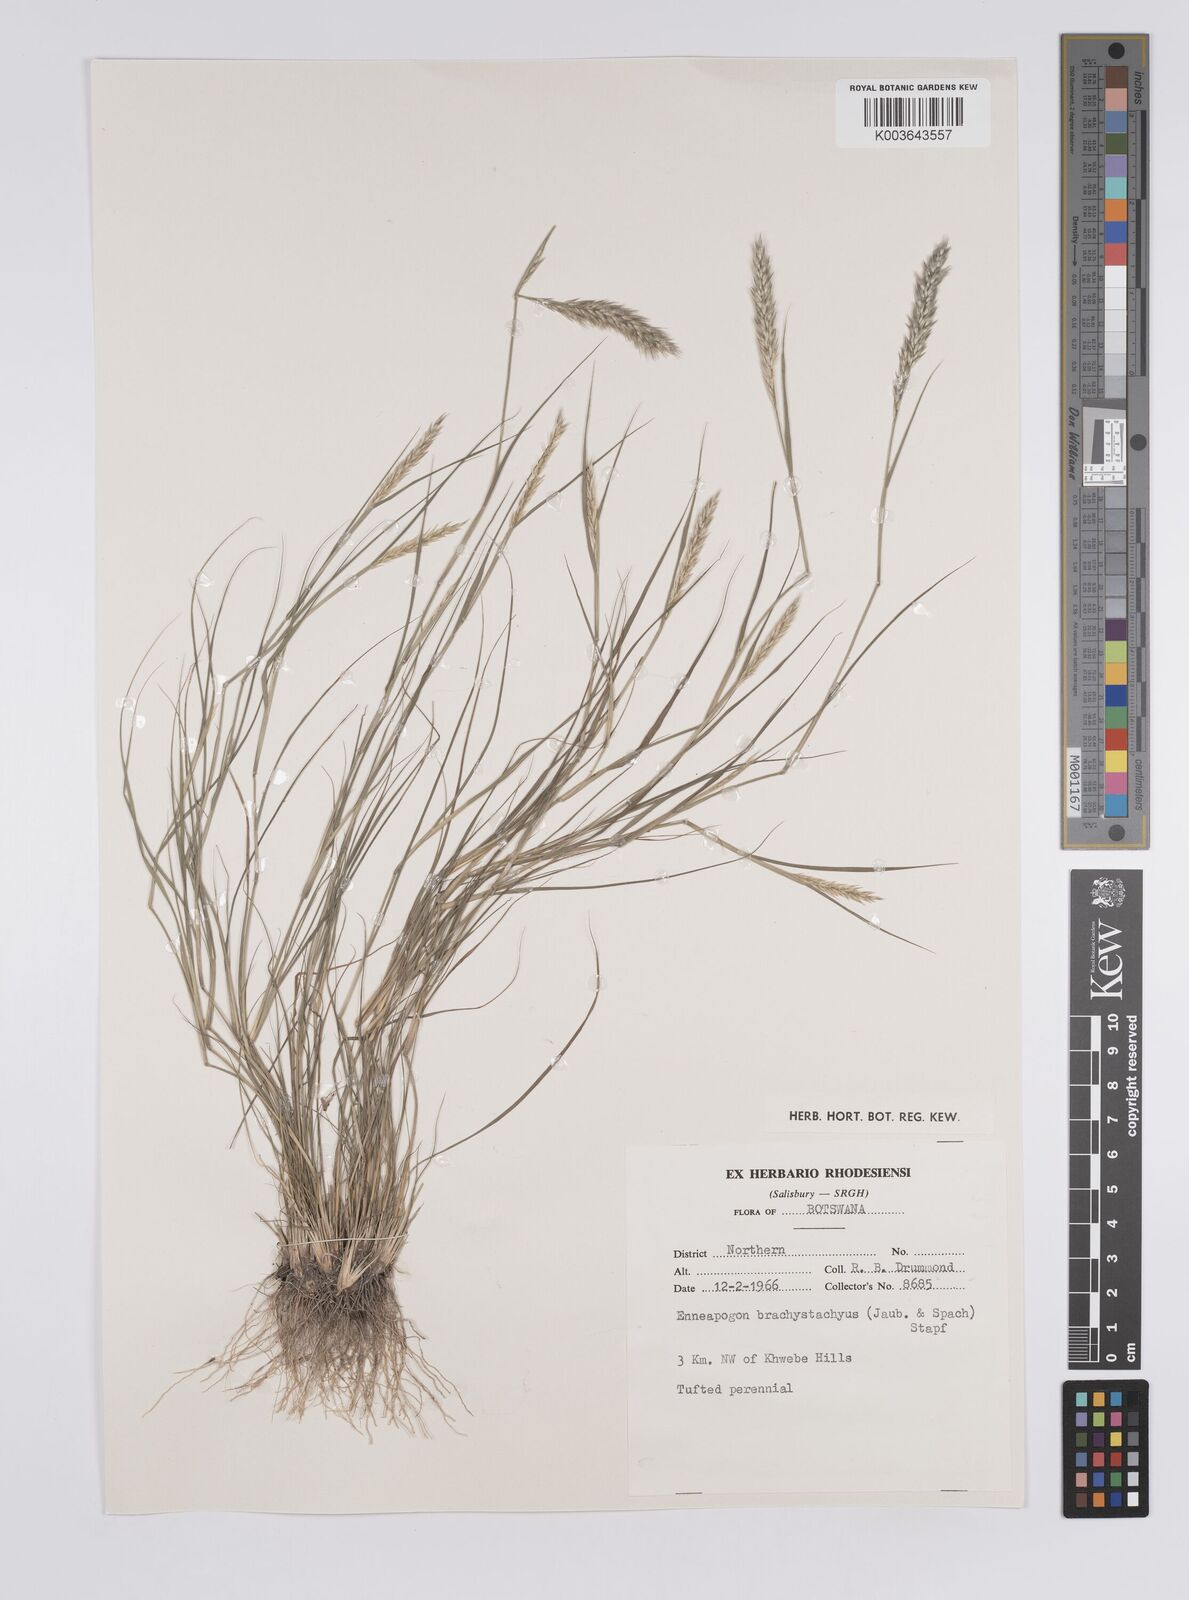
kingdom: Plantae
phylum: Tracheophyta
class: Liliopsida
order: Poales
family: Poaceae
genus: Enneapogon
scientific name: Enneapogon desvauxii
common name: Feather pappus grass
